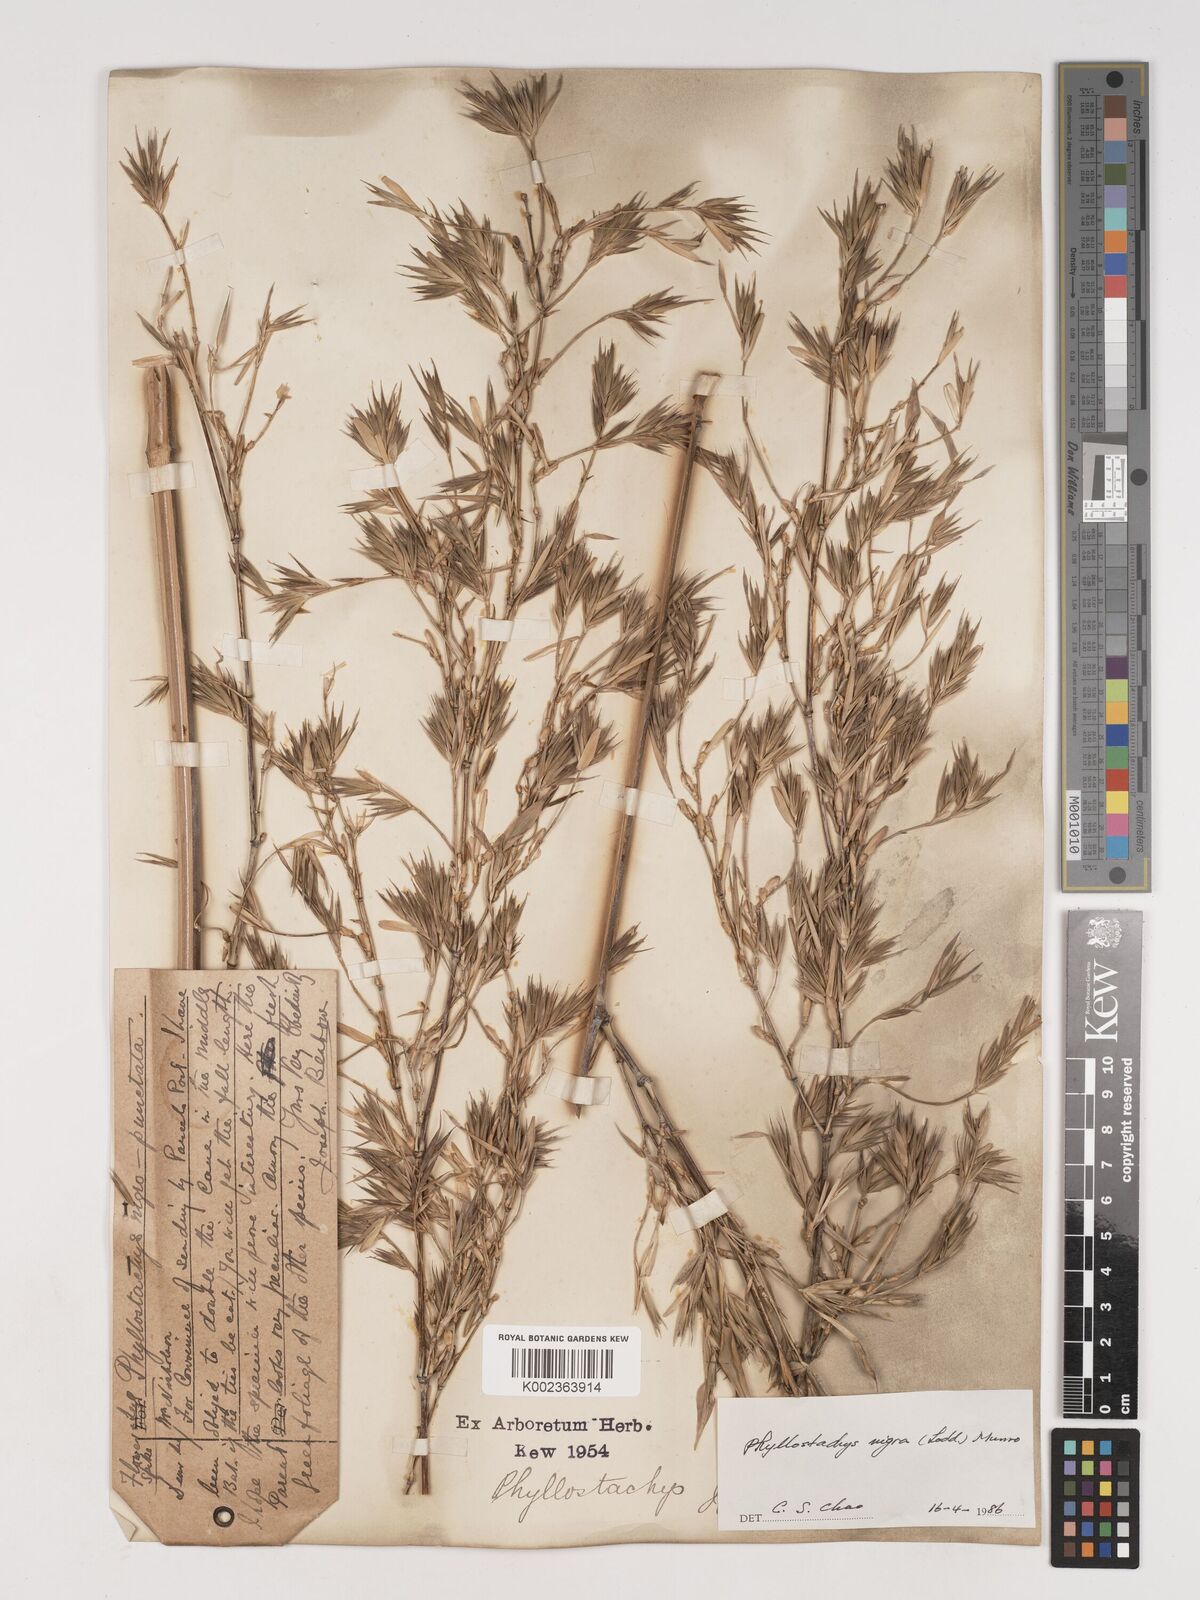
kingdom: Plantae
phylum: Tracheophyta
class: Liliopsida
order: Poales
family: Poaceae
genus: Phyllostachys
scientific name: Phyllostachys nigra
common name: Black bamboo
